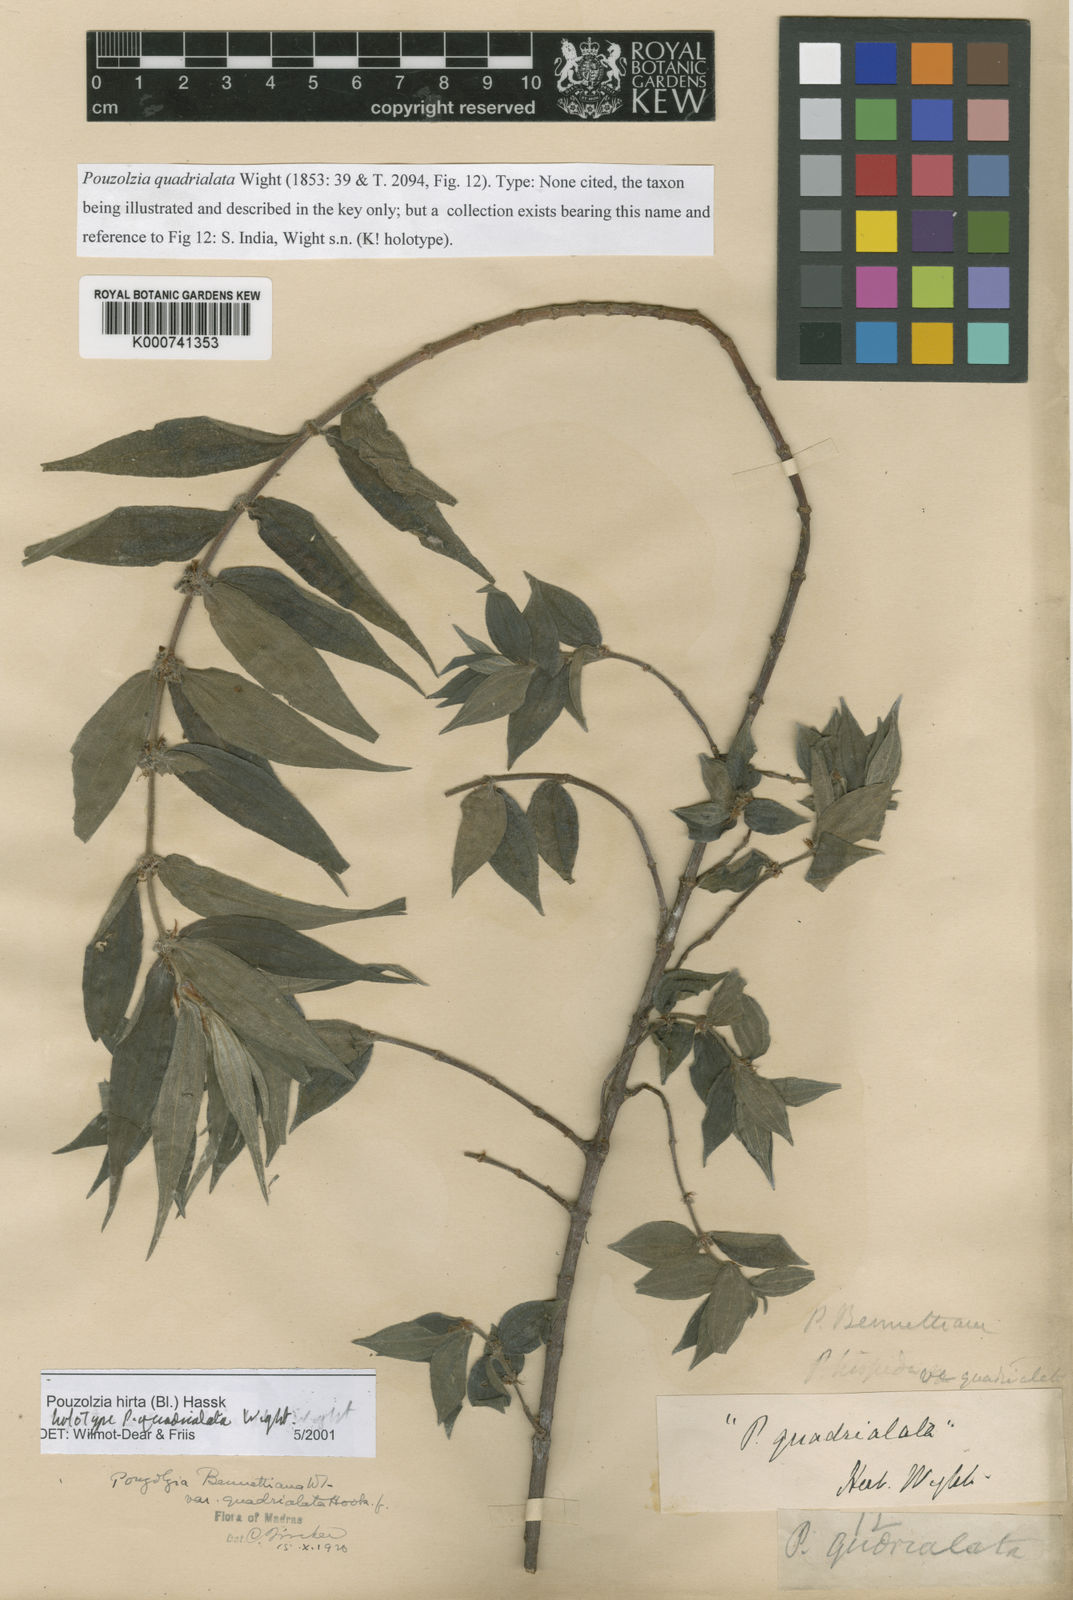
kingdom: Plantae
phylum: Tracheophyta
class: Magnoliopsida
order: Rosales
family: Urticaceae
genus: Gonostegia
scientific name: Gonostegia triandra
